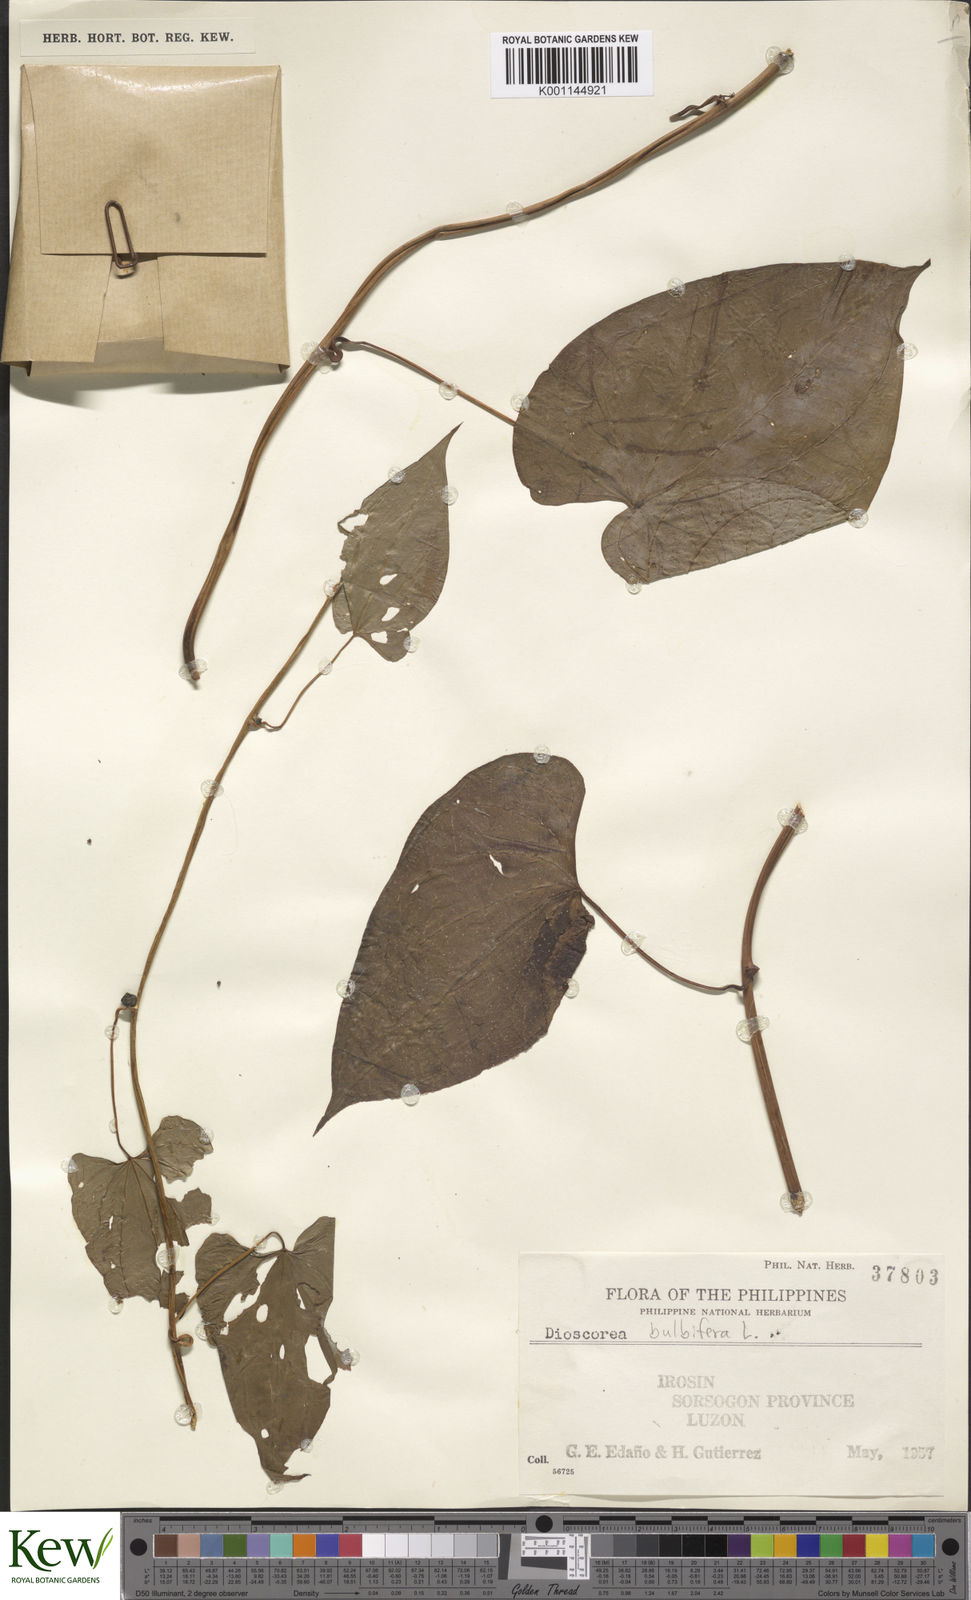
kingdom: Plantae
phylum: Tracheophyta
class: Liliopsida
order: Dioscoreales
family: Dioscoreaceae
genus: Dioscorea
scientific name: Dioscorea
